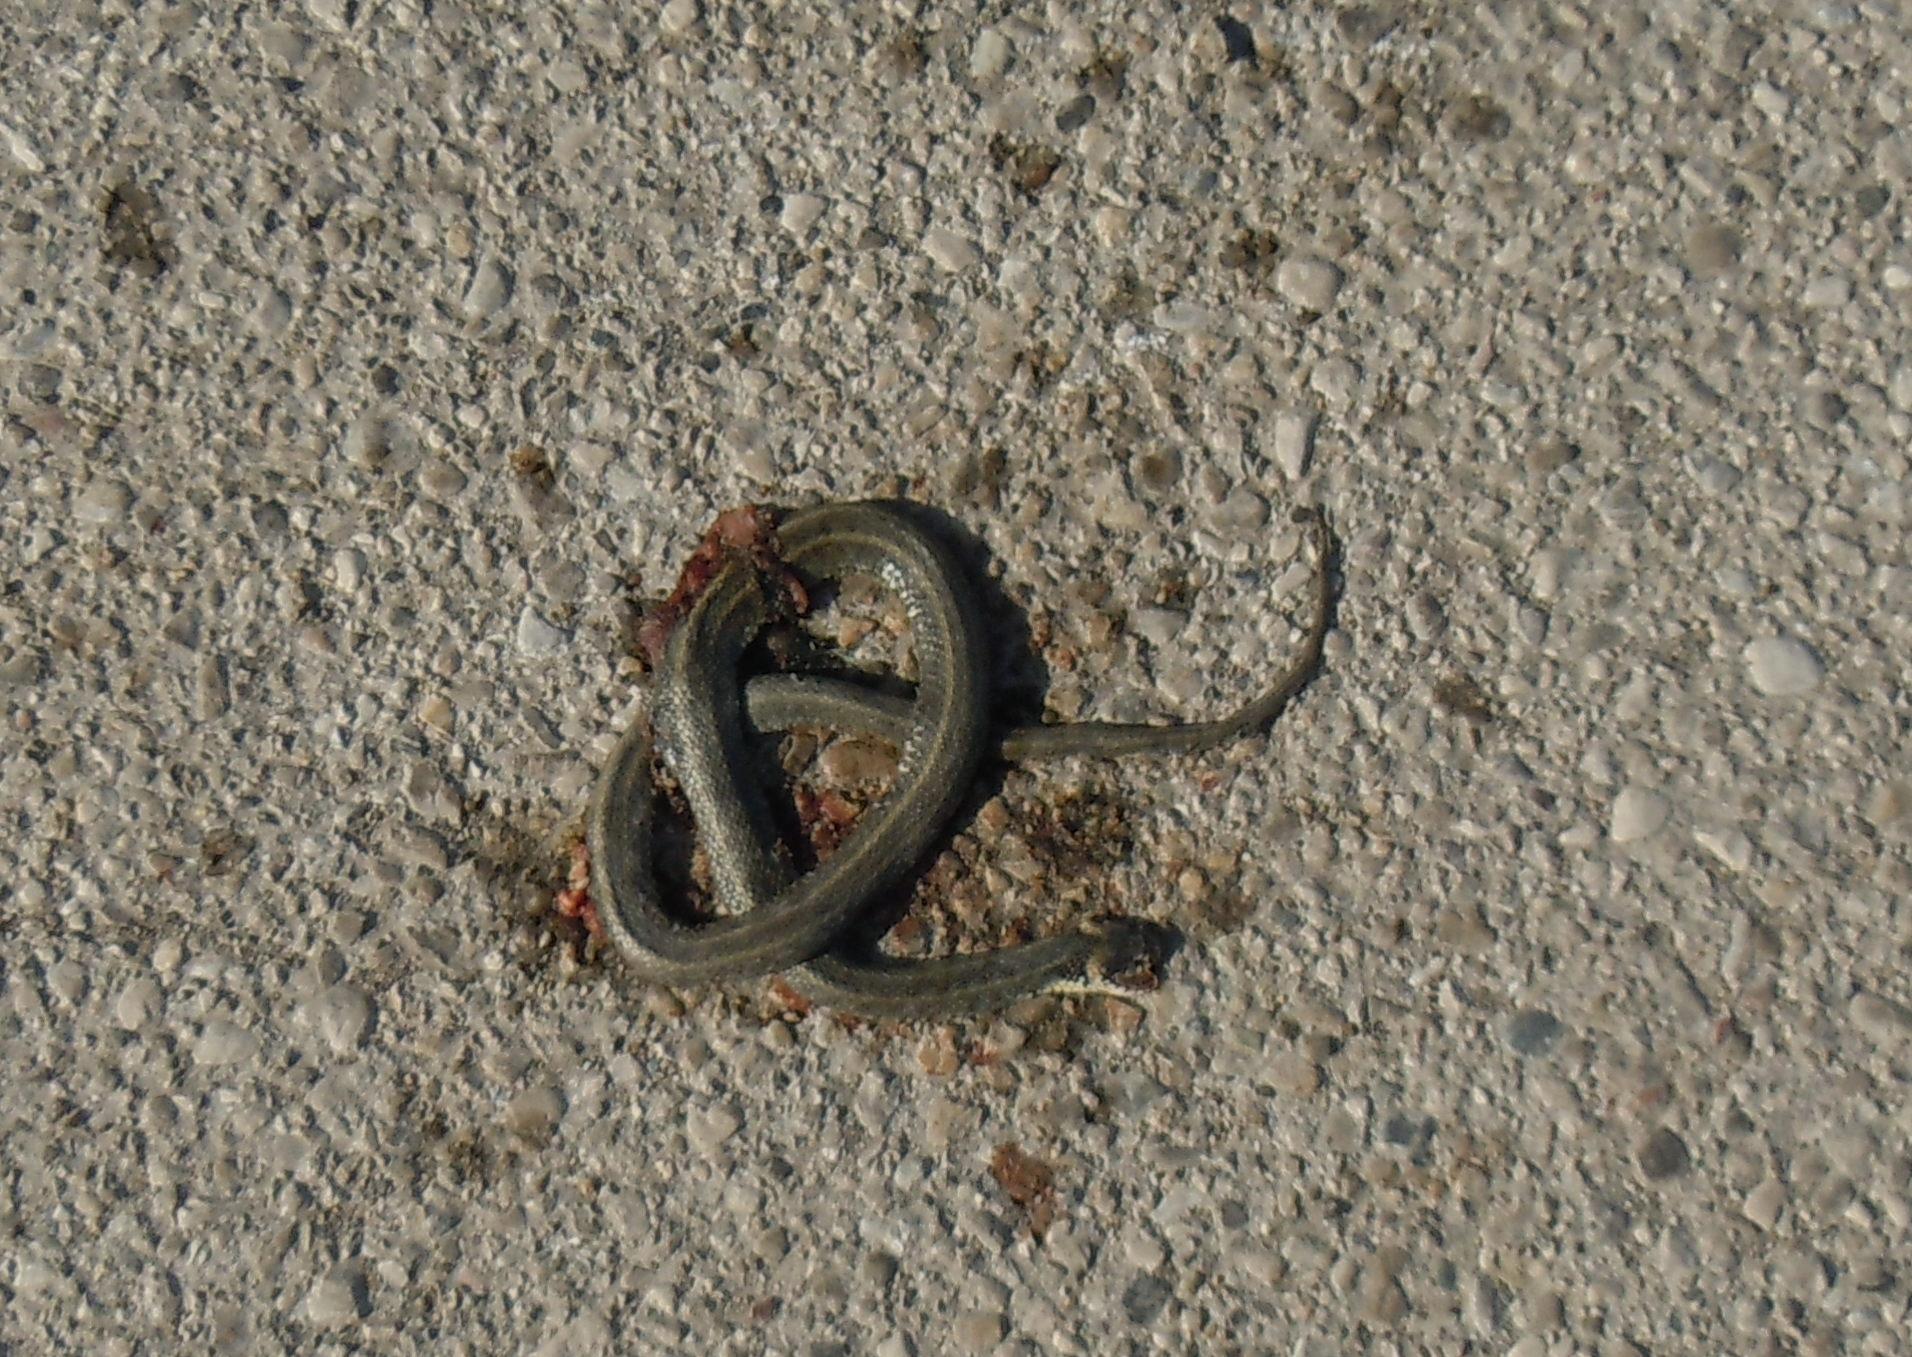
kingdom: Animalia
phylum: Chordata
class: Squamata
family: Colubridae
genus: Natrix
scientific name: Natrix natrix
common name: Grass snake
